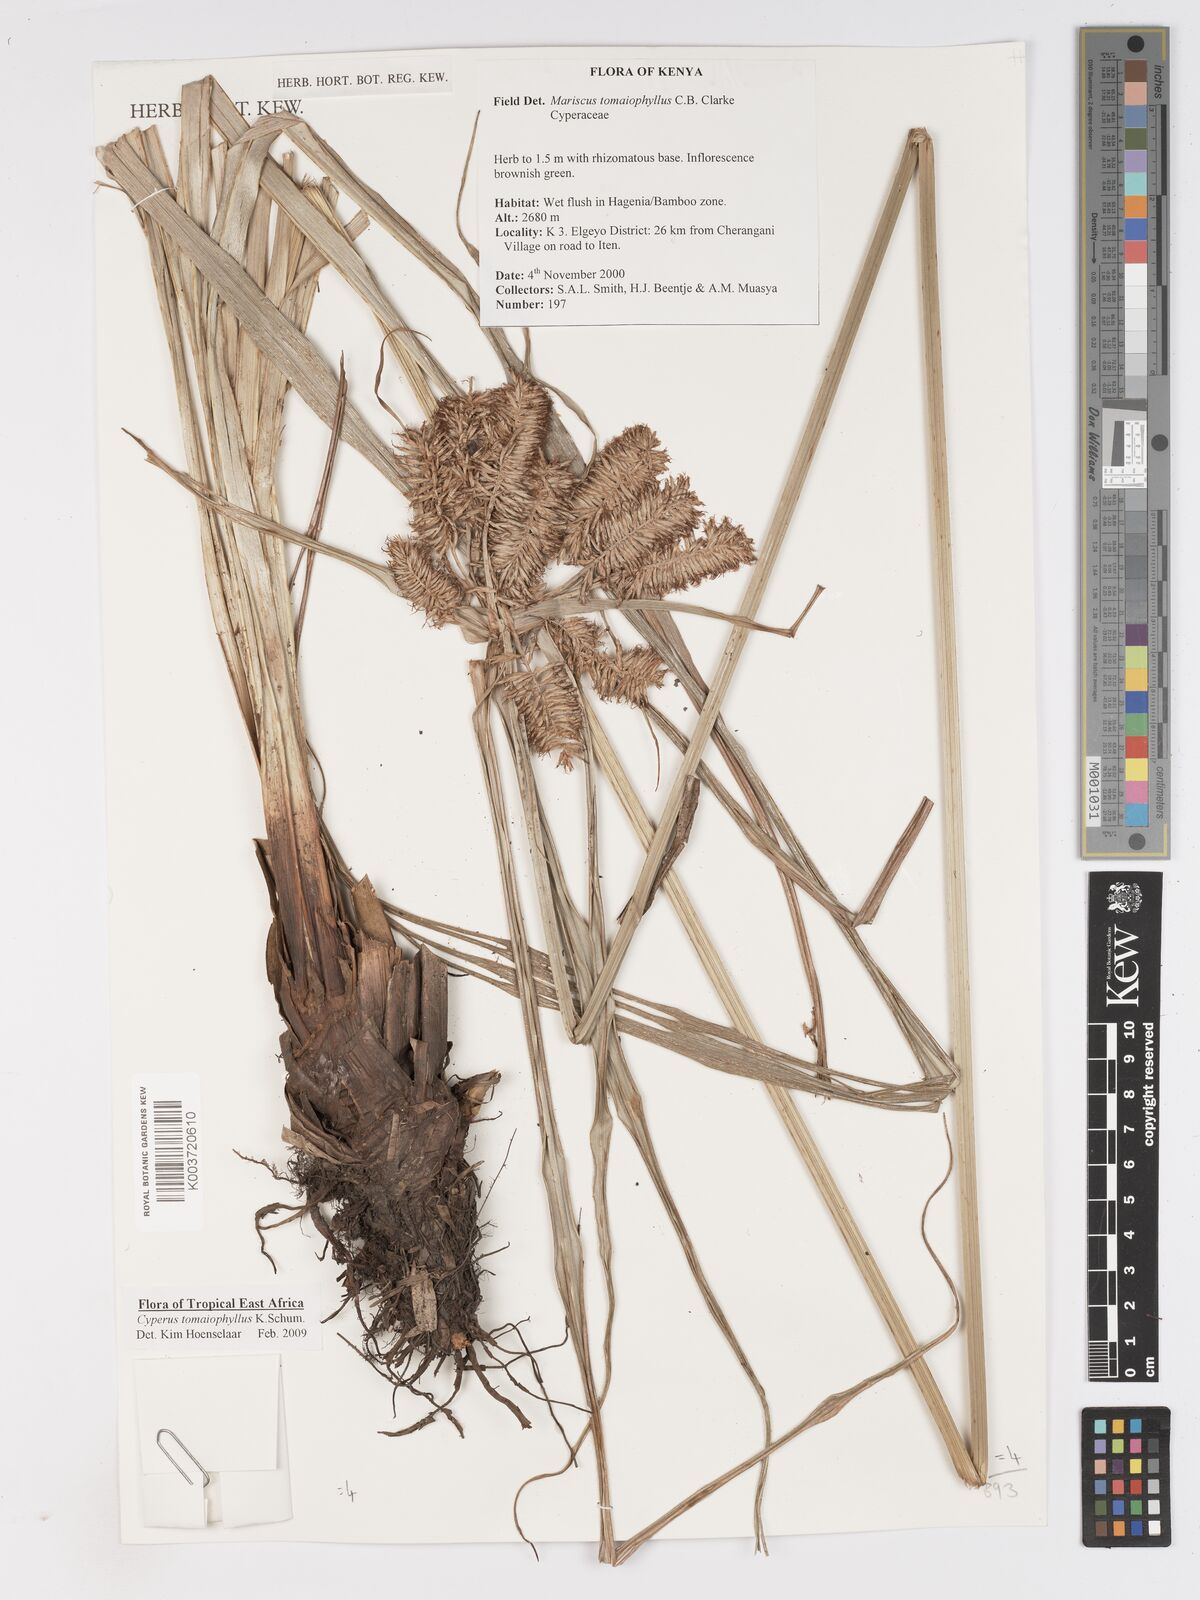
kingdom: Plantae
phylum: Tracheophyta
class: Liliopsida
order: Poales
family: Cyperaceae
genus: Cyperus
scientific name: Cyperus tomaiophyllus
